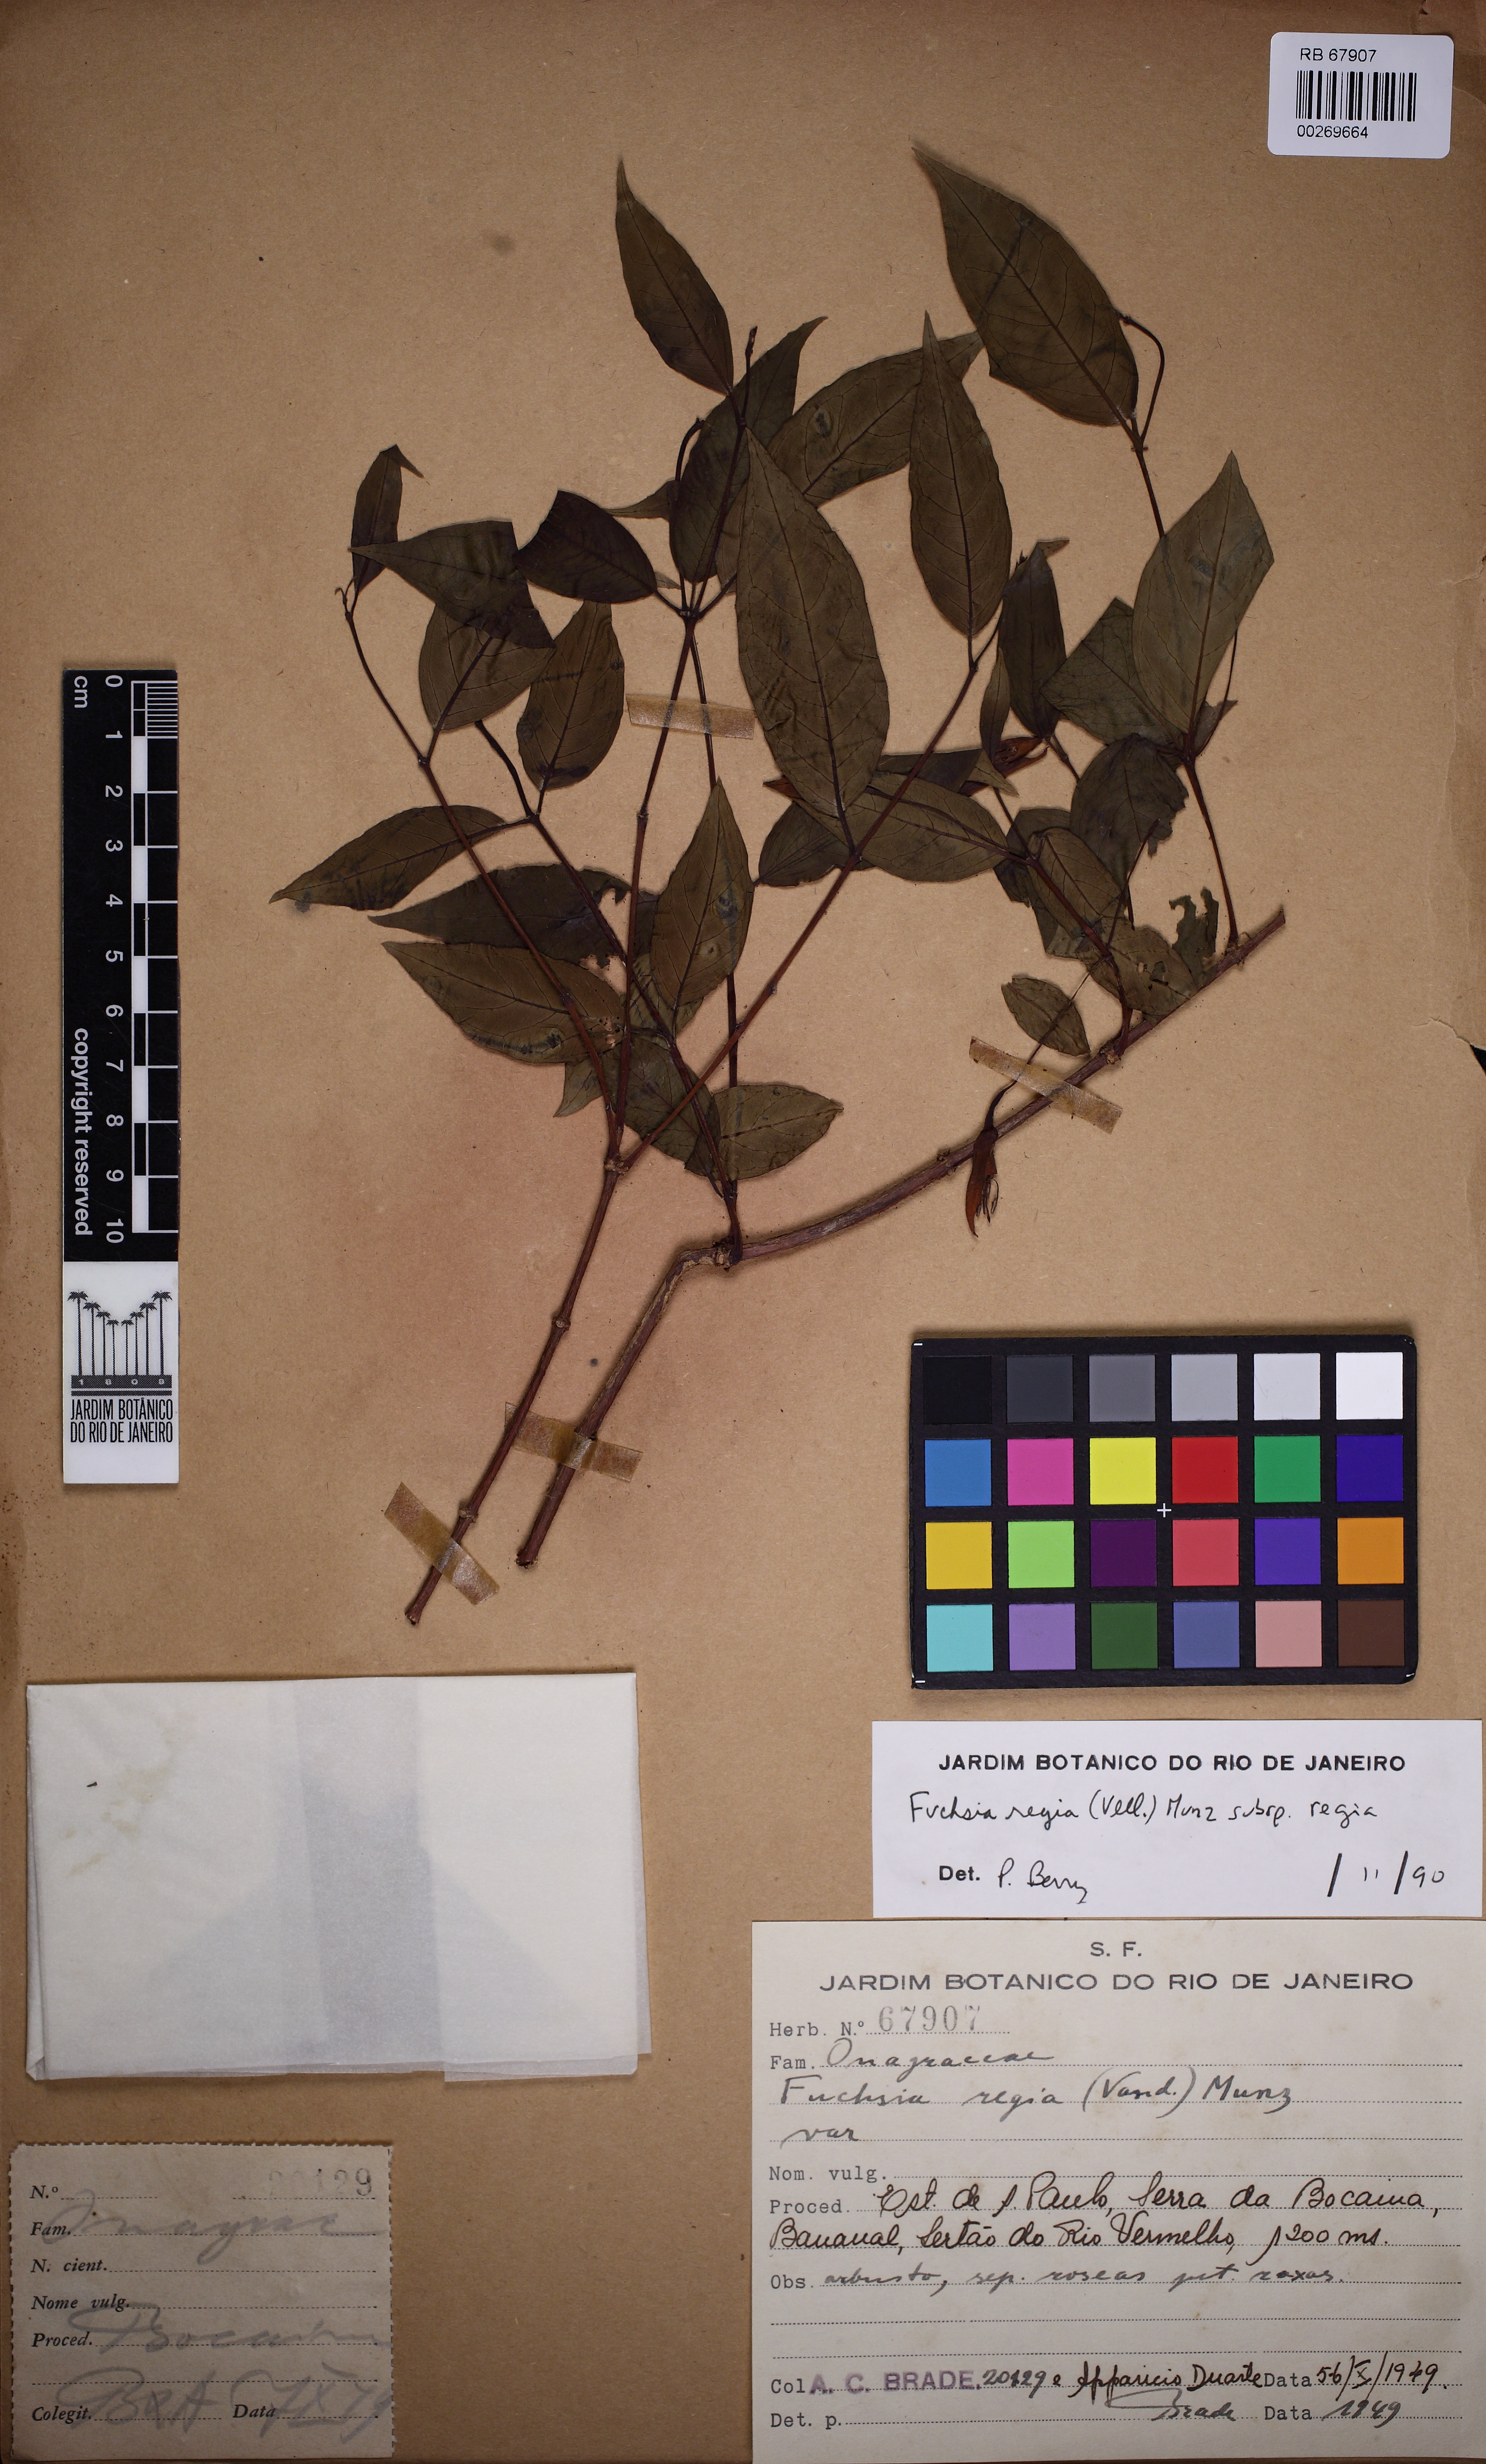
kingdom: Plantae
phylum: Tracheophyta
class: Magnoliopsida
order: Myrtales
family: Onagraceae
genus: Fuchsia
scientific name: Fuchsia regia
